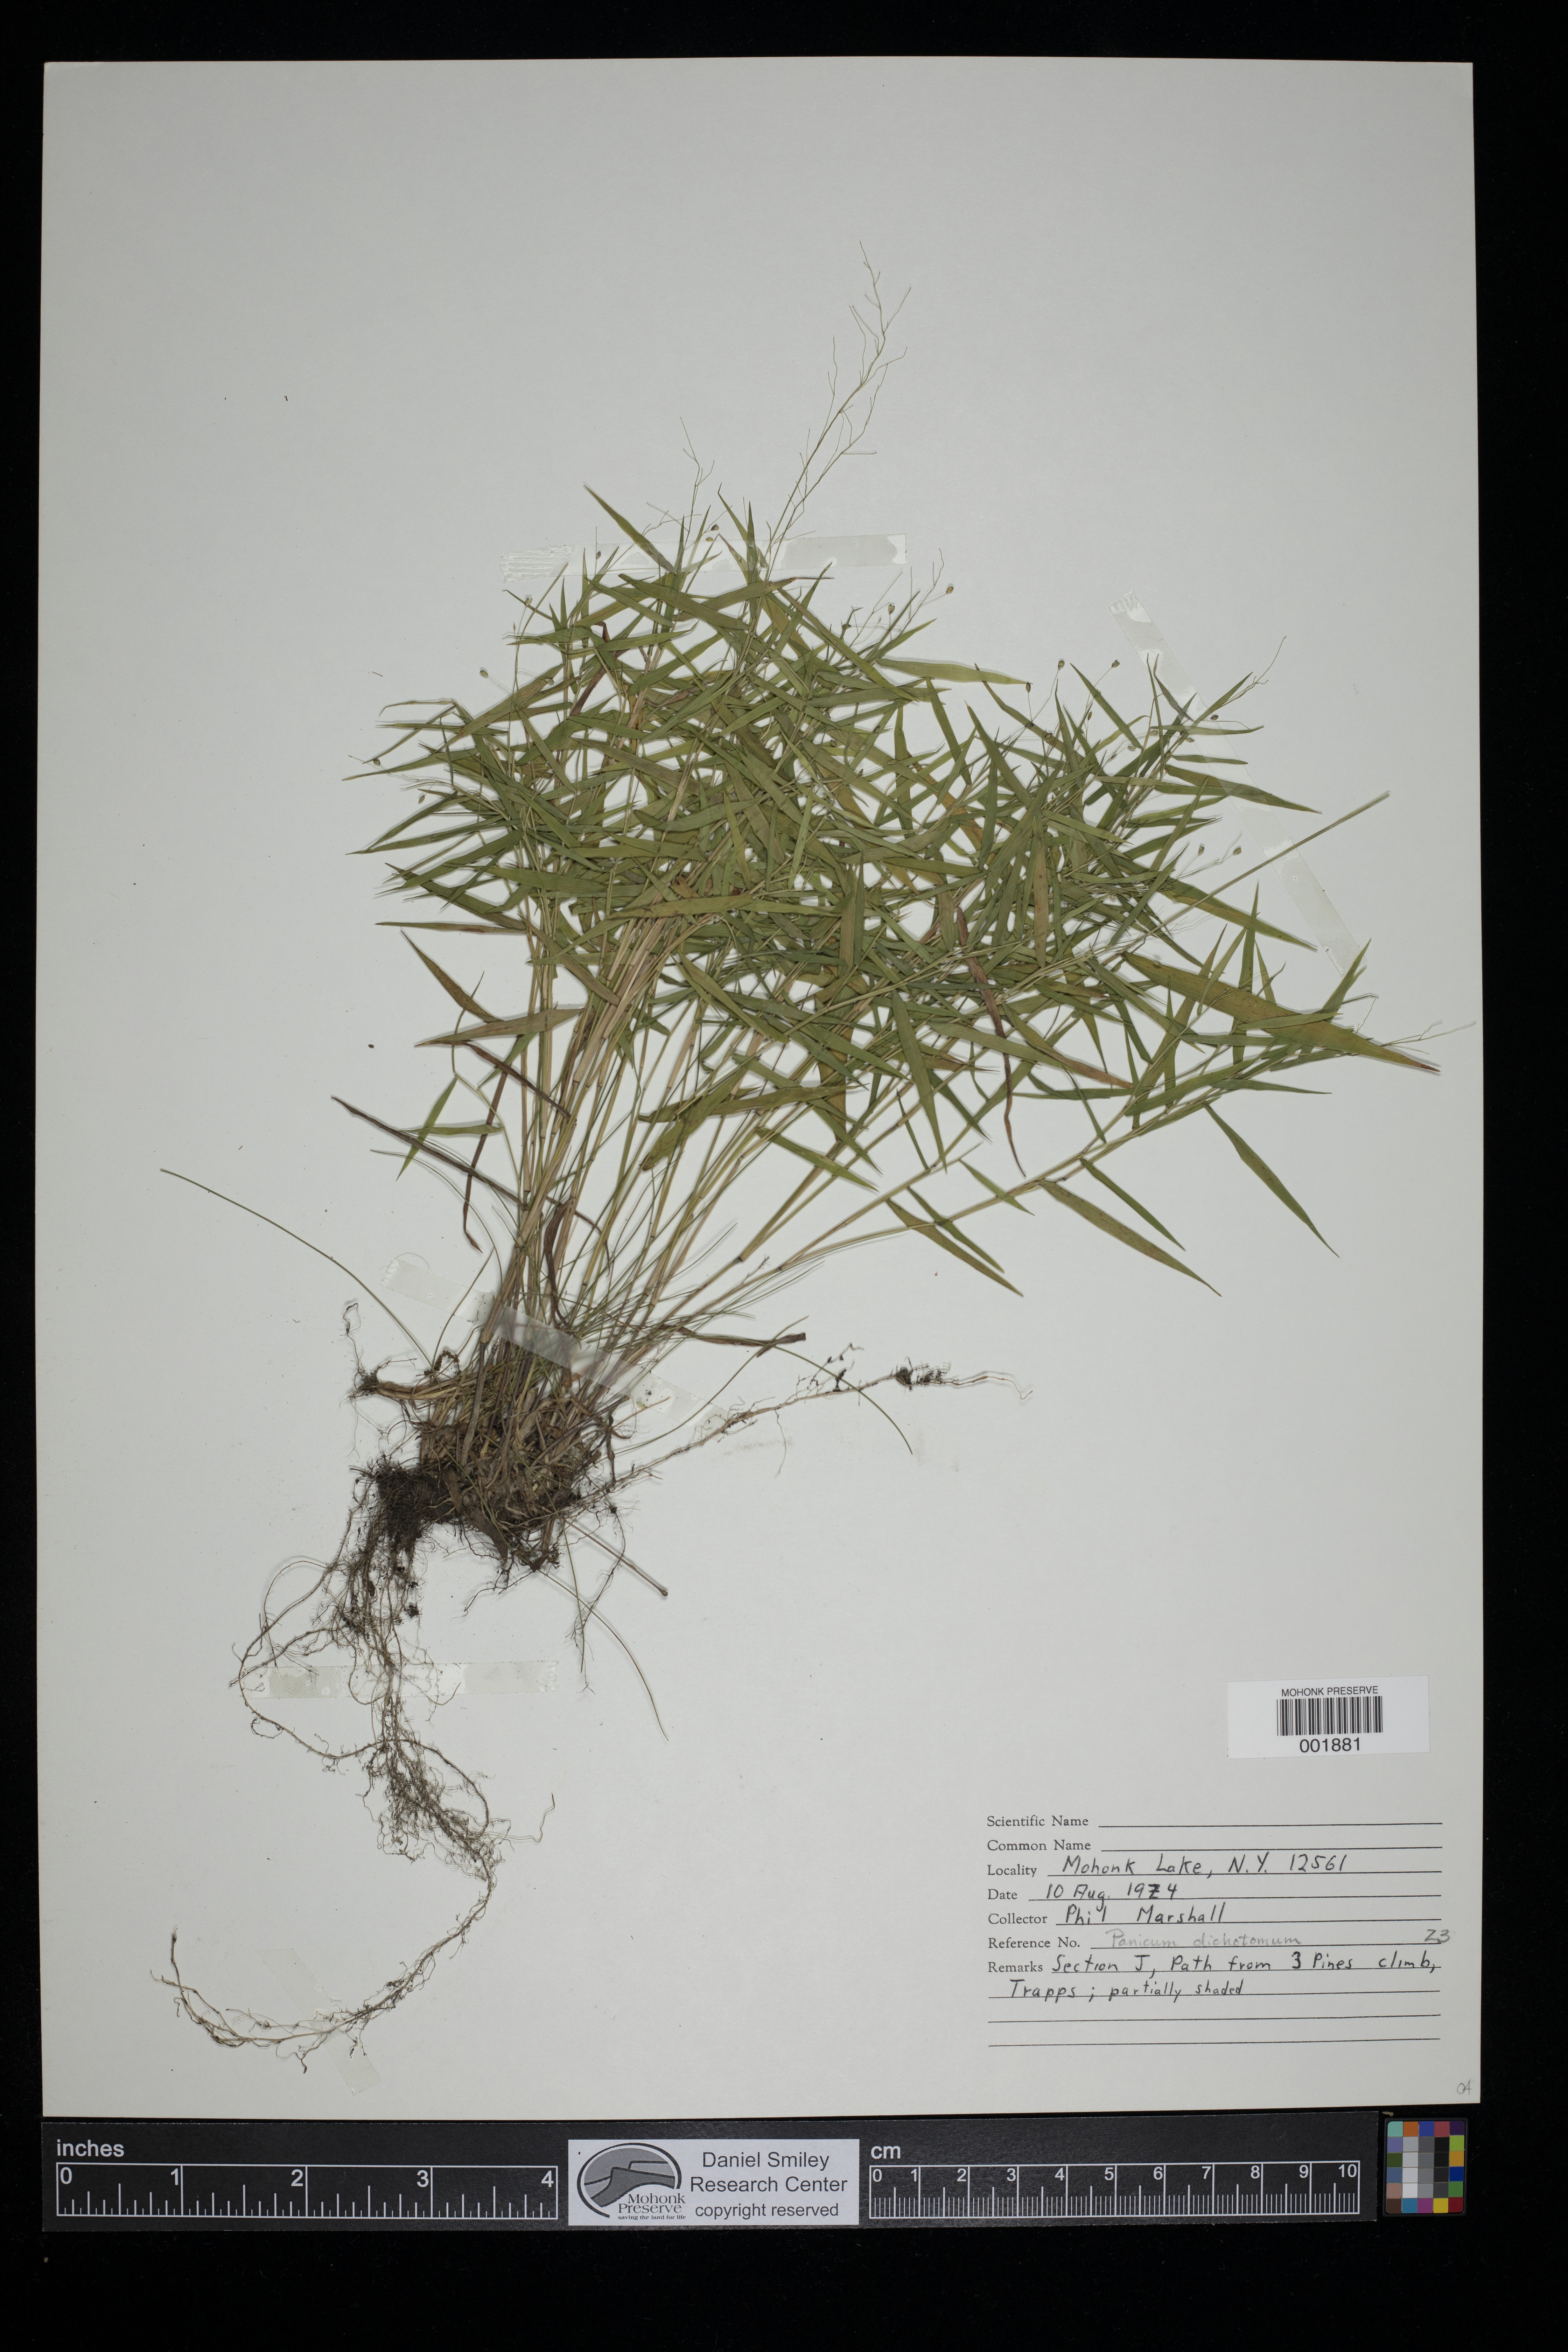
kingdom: Plantae
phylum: Tracheophyta
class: Liliopsida
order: Poales
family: Poaceae
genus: Dichanthelium
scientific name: Dichanthelium dichotomum
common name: Cypress panicgrass
